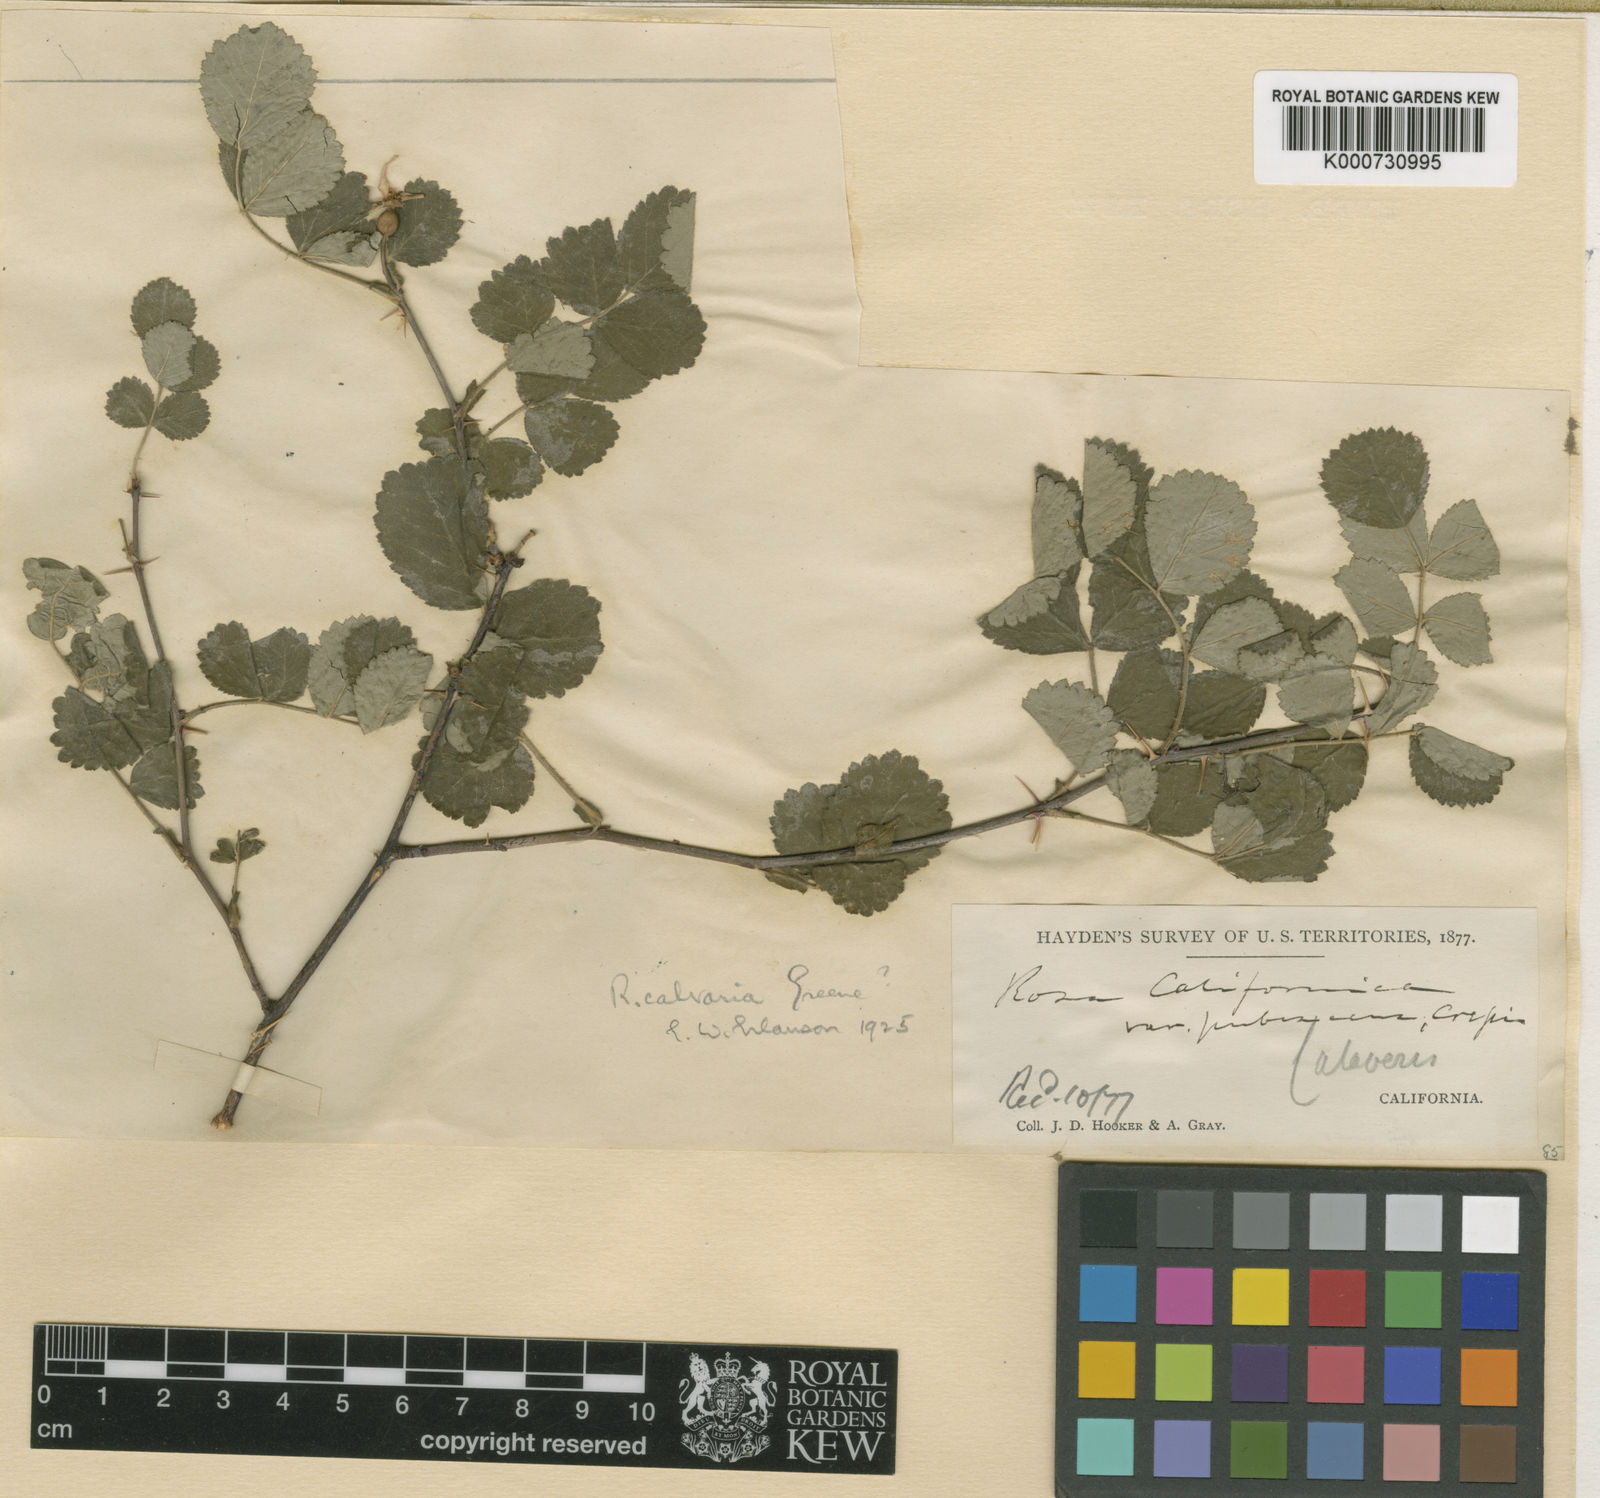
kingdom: Plantae
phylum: Tracheophyta
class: Magnoliopsida
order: Rosales
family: Rosaceae
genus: Rosa
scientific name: Rosa bridgesii
